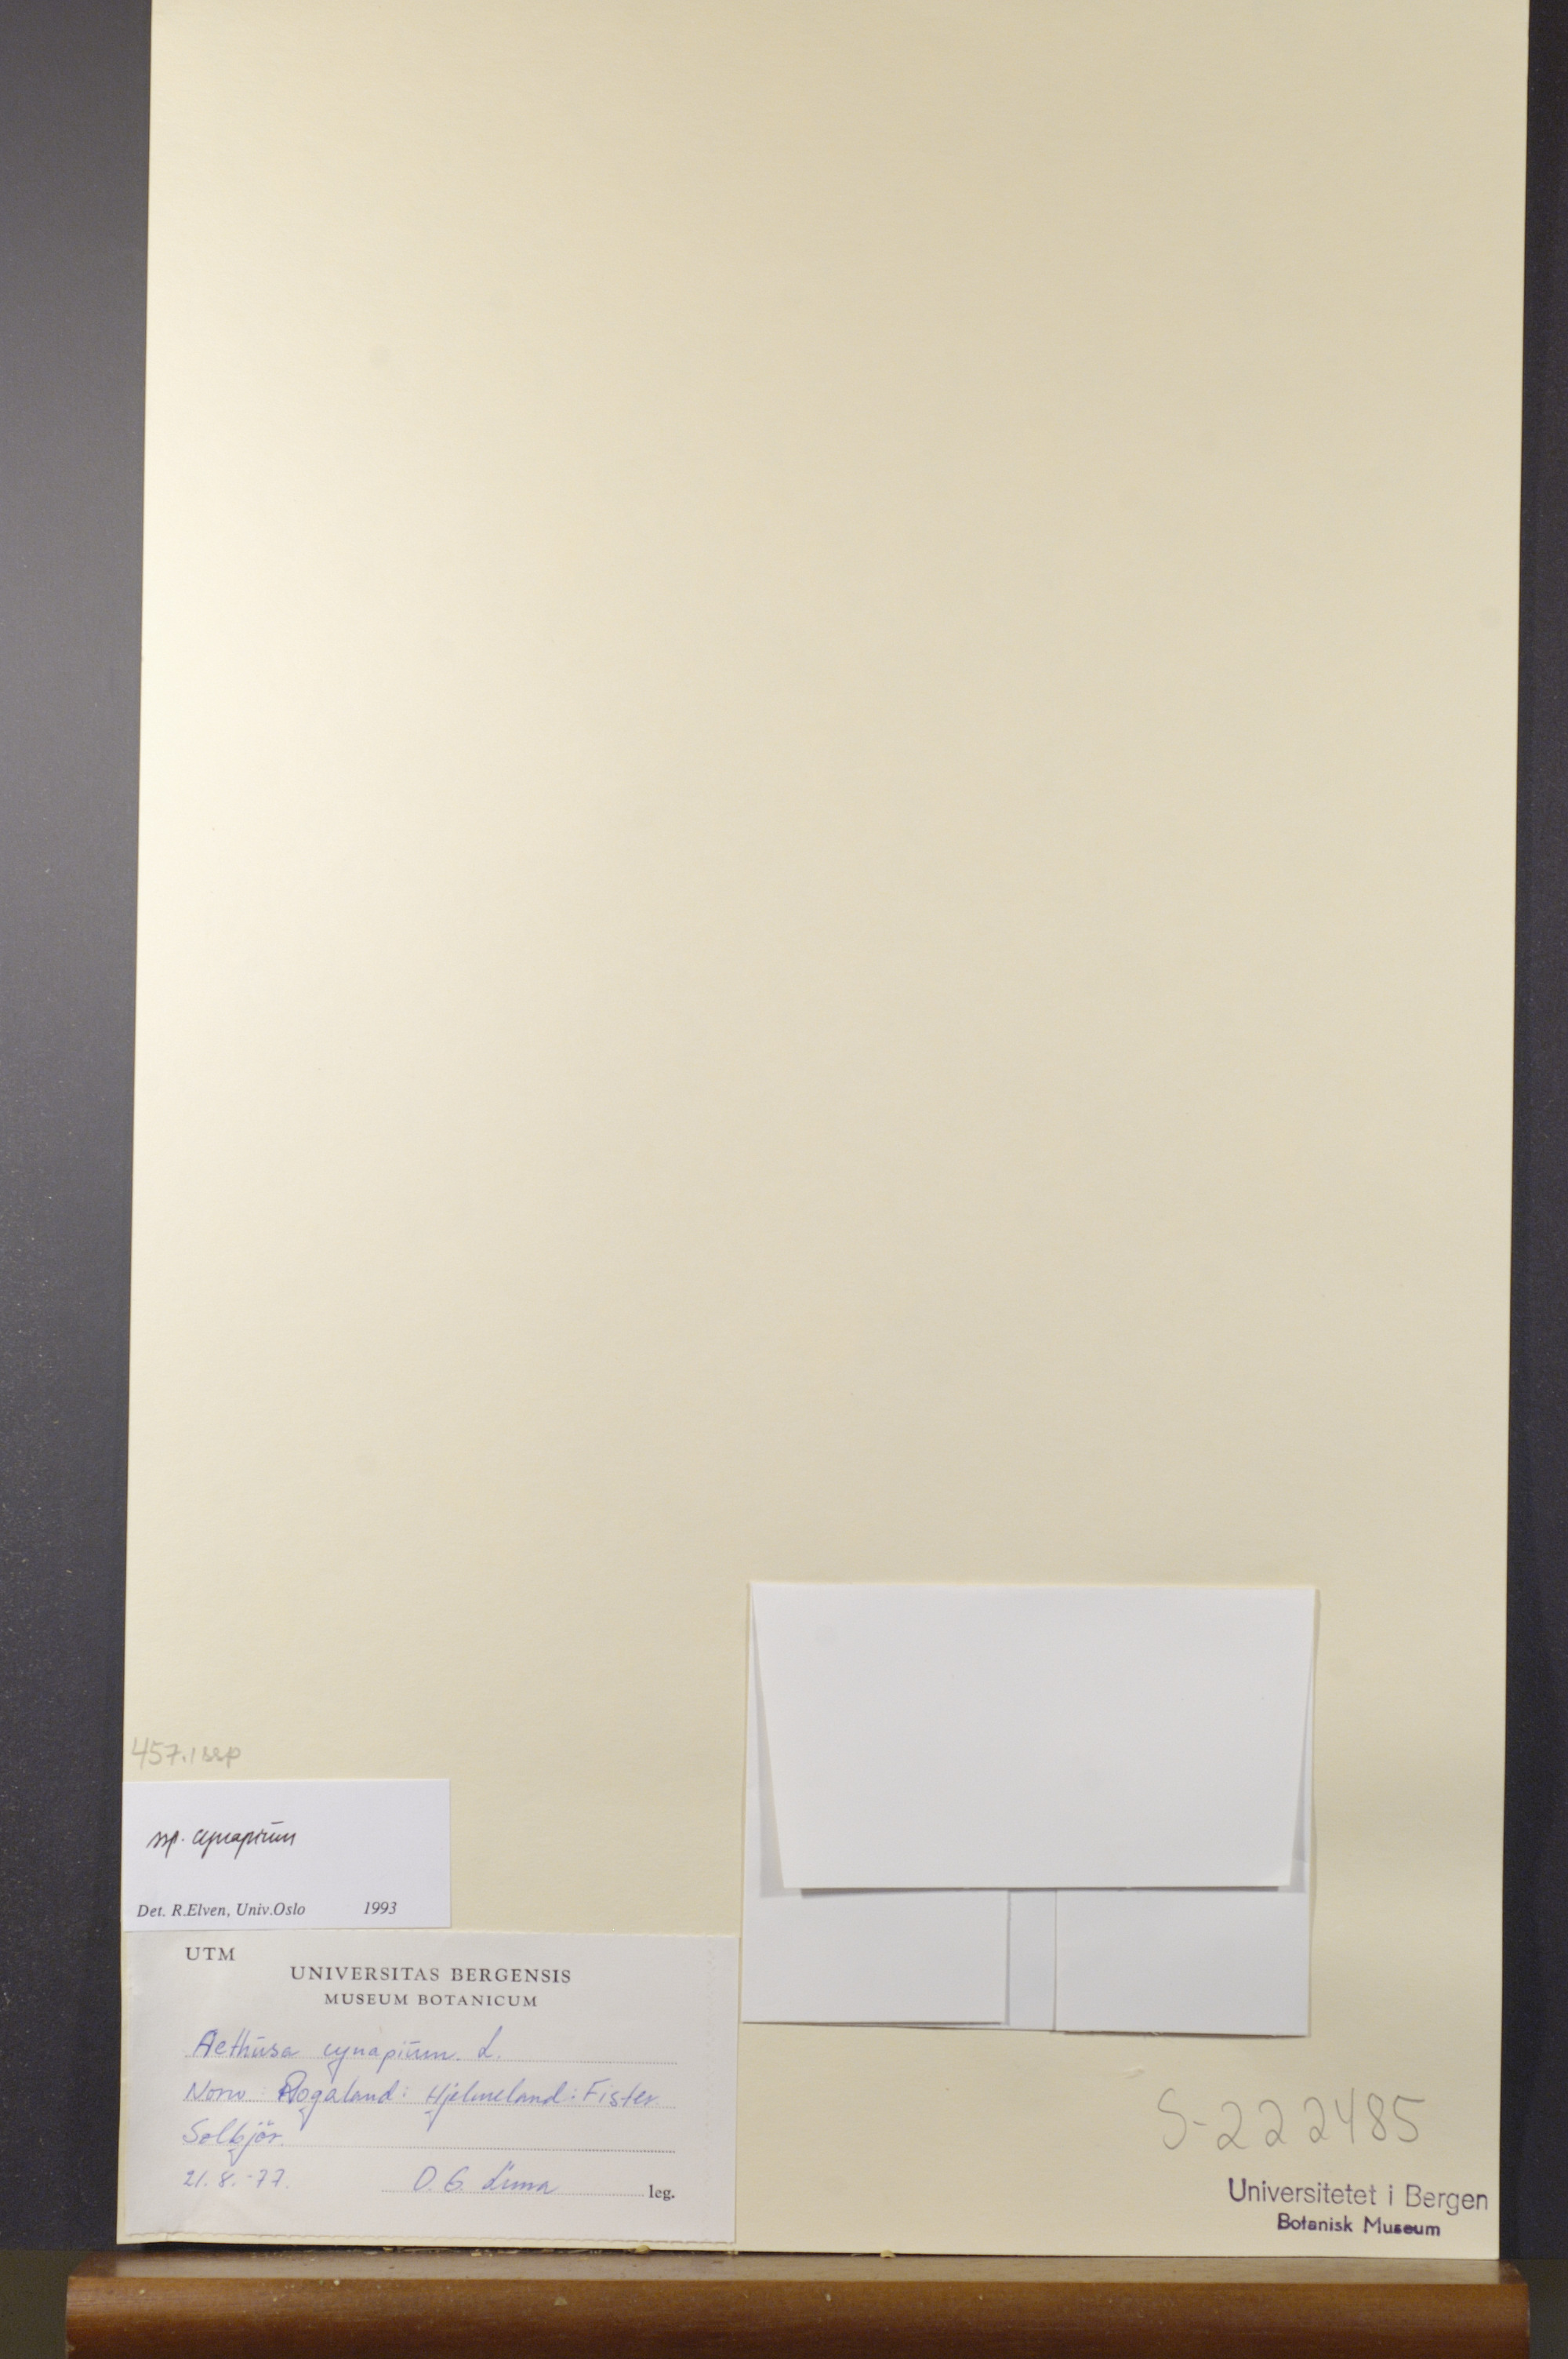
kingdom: Plantae
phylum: Tracheophyta
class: Magnoliopsida
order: Apiales
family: Apiaceae
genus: Aethusa
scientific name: Aethusa cynapium
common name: Fool's parsley
